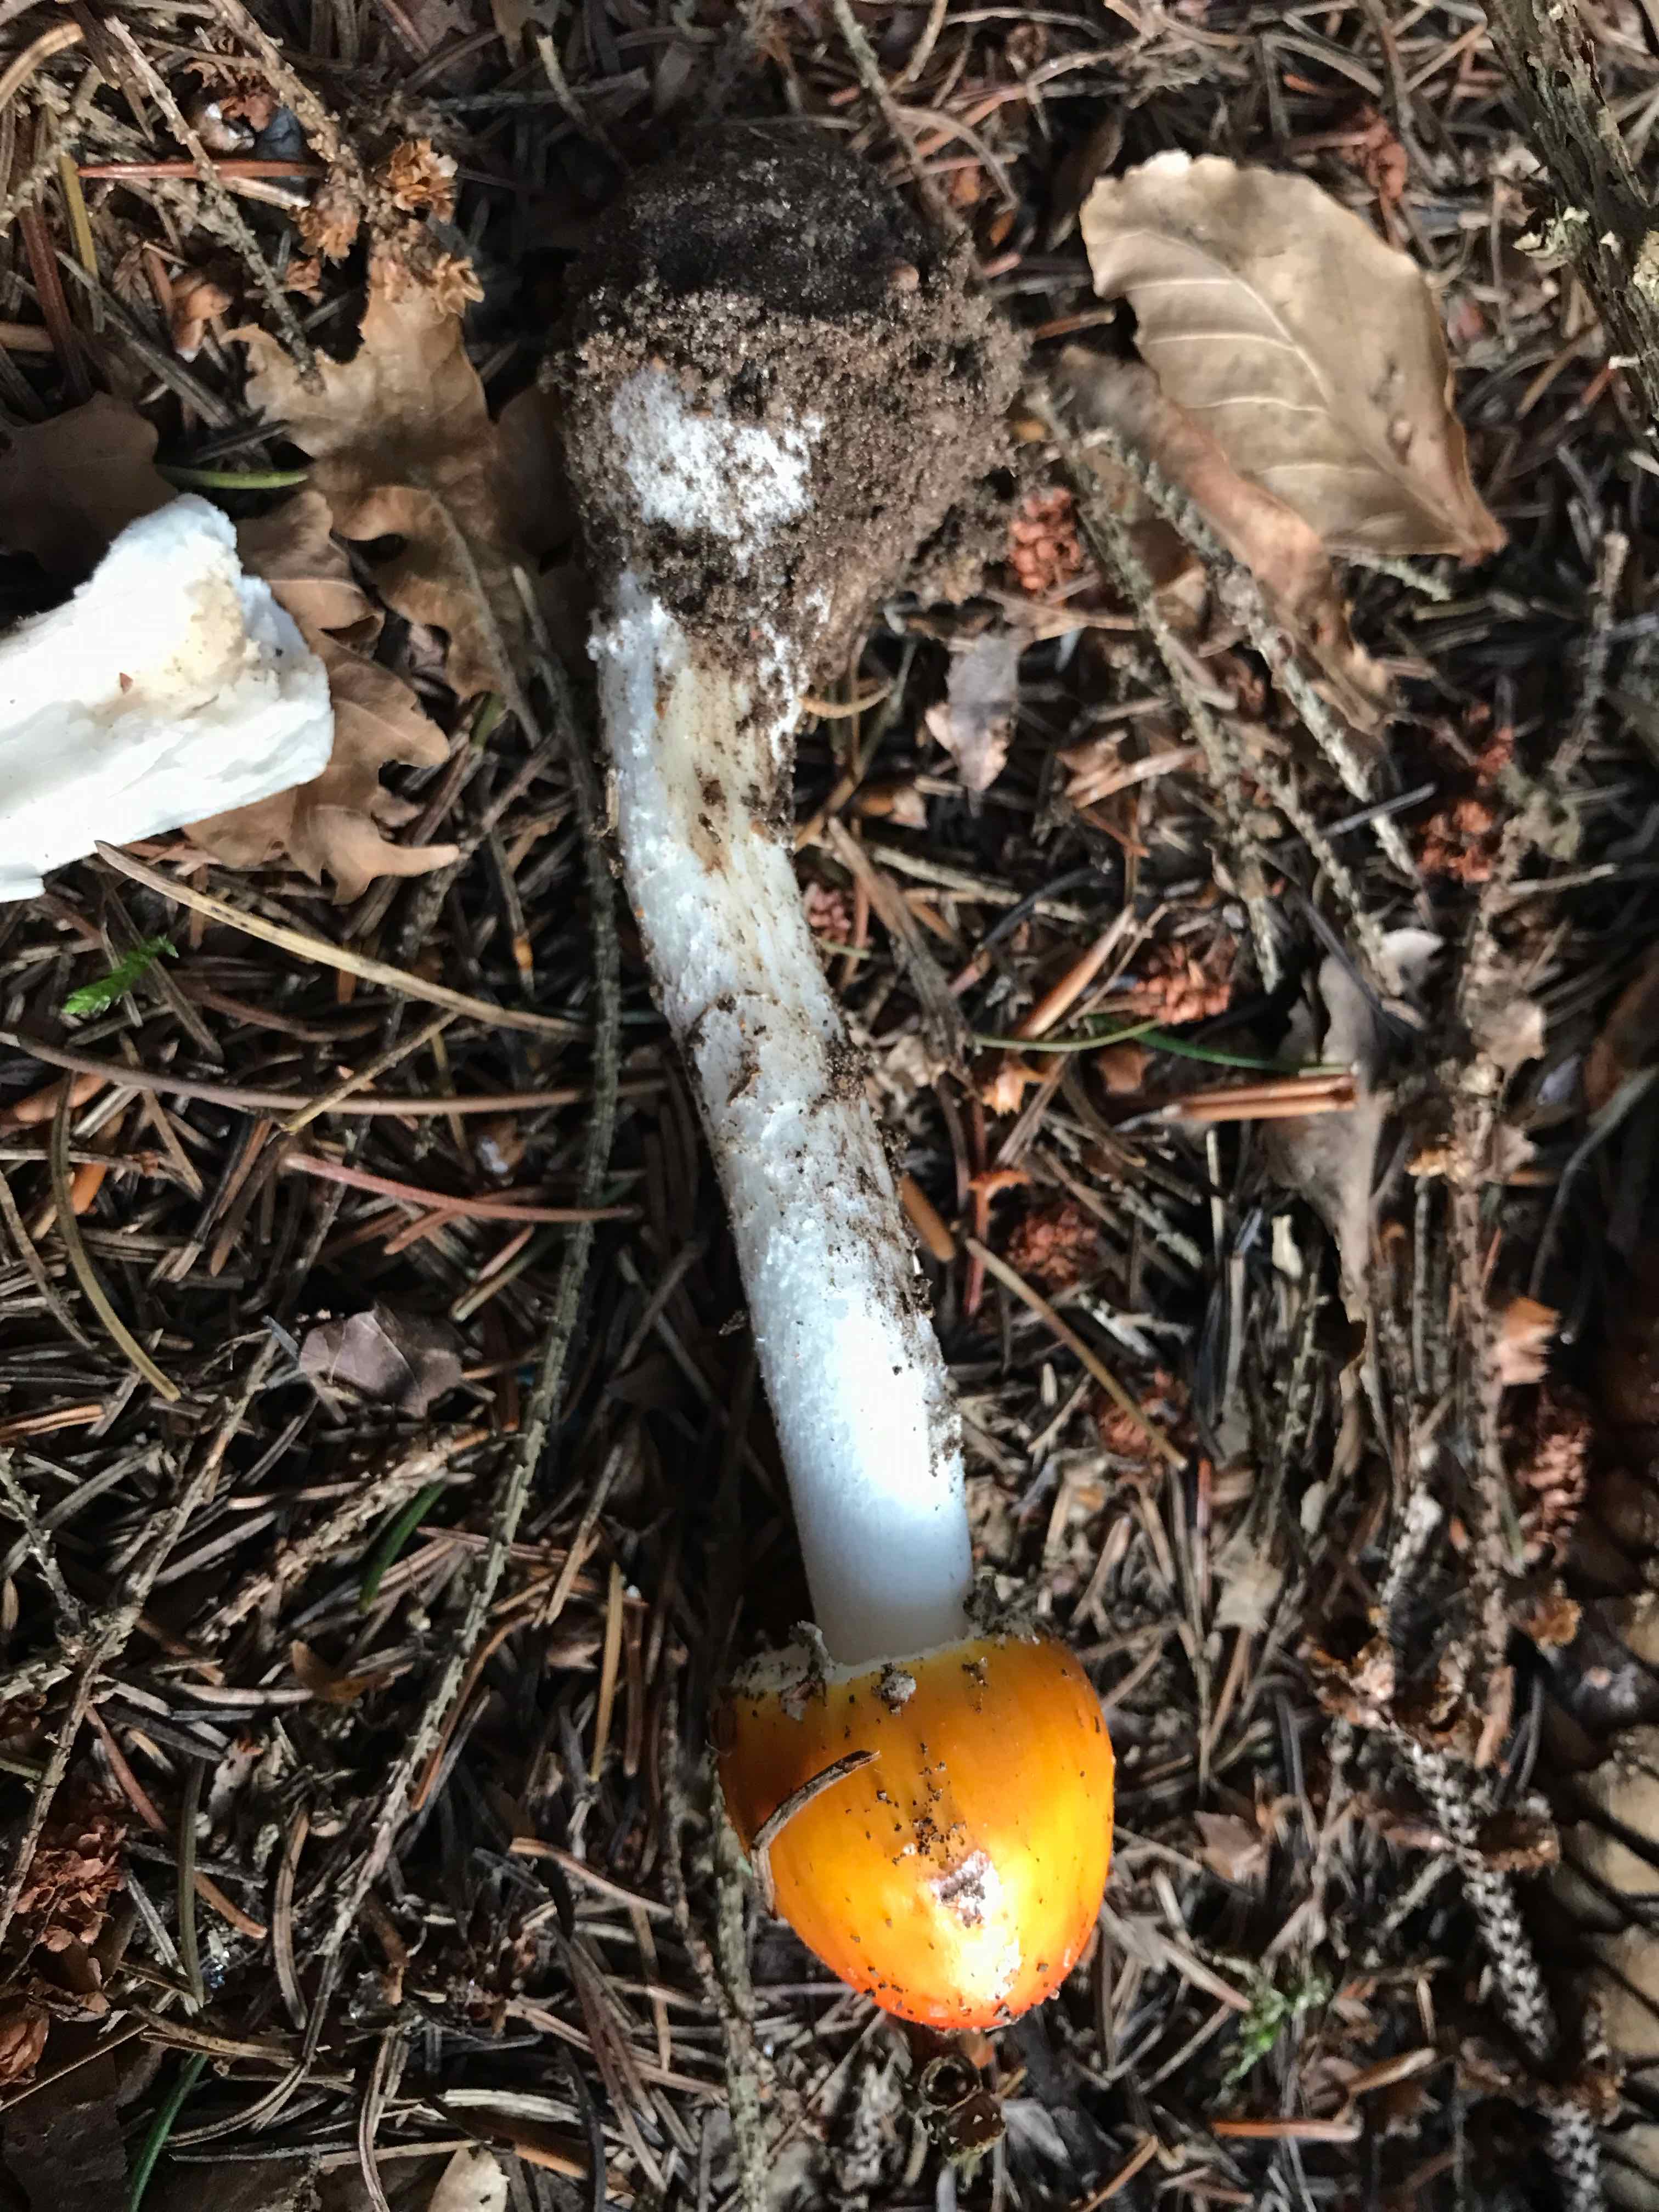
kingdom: Fungi
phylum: Basidiomycota
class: Agaricomycetes
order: Agaricales
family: Amanitaceae
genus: Amanita
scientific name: Amanita muscaria
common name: rød fluesvamp
